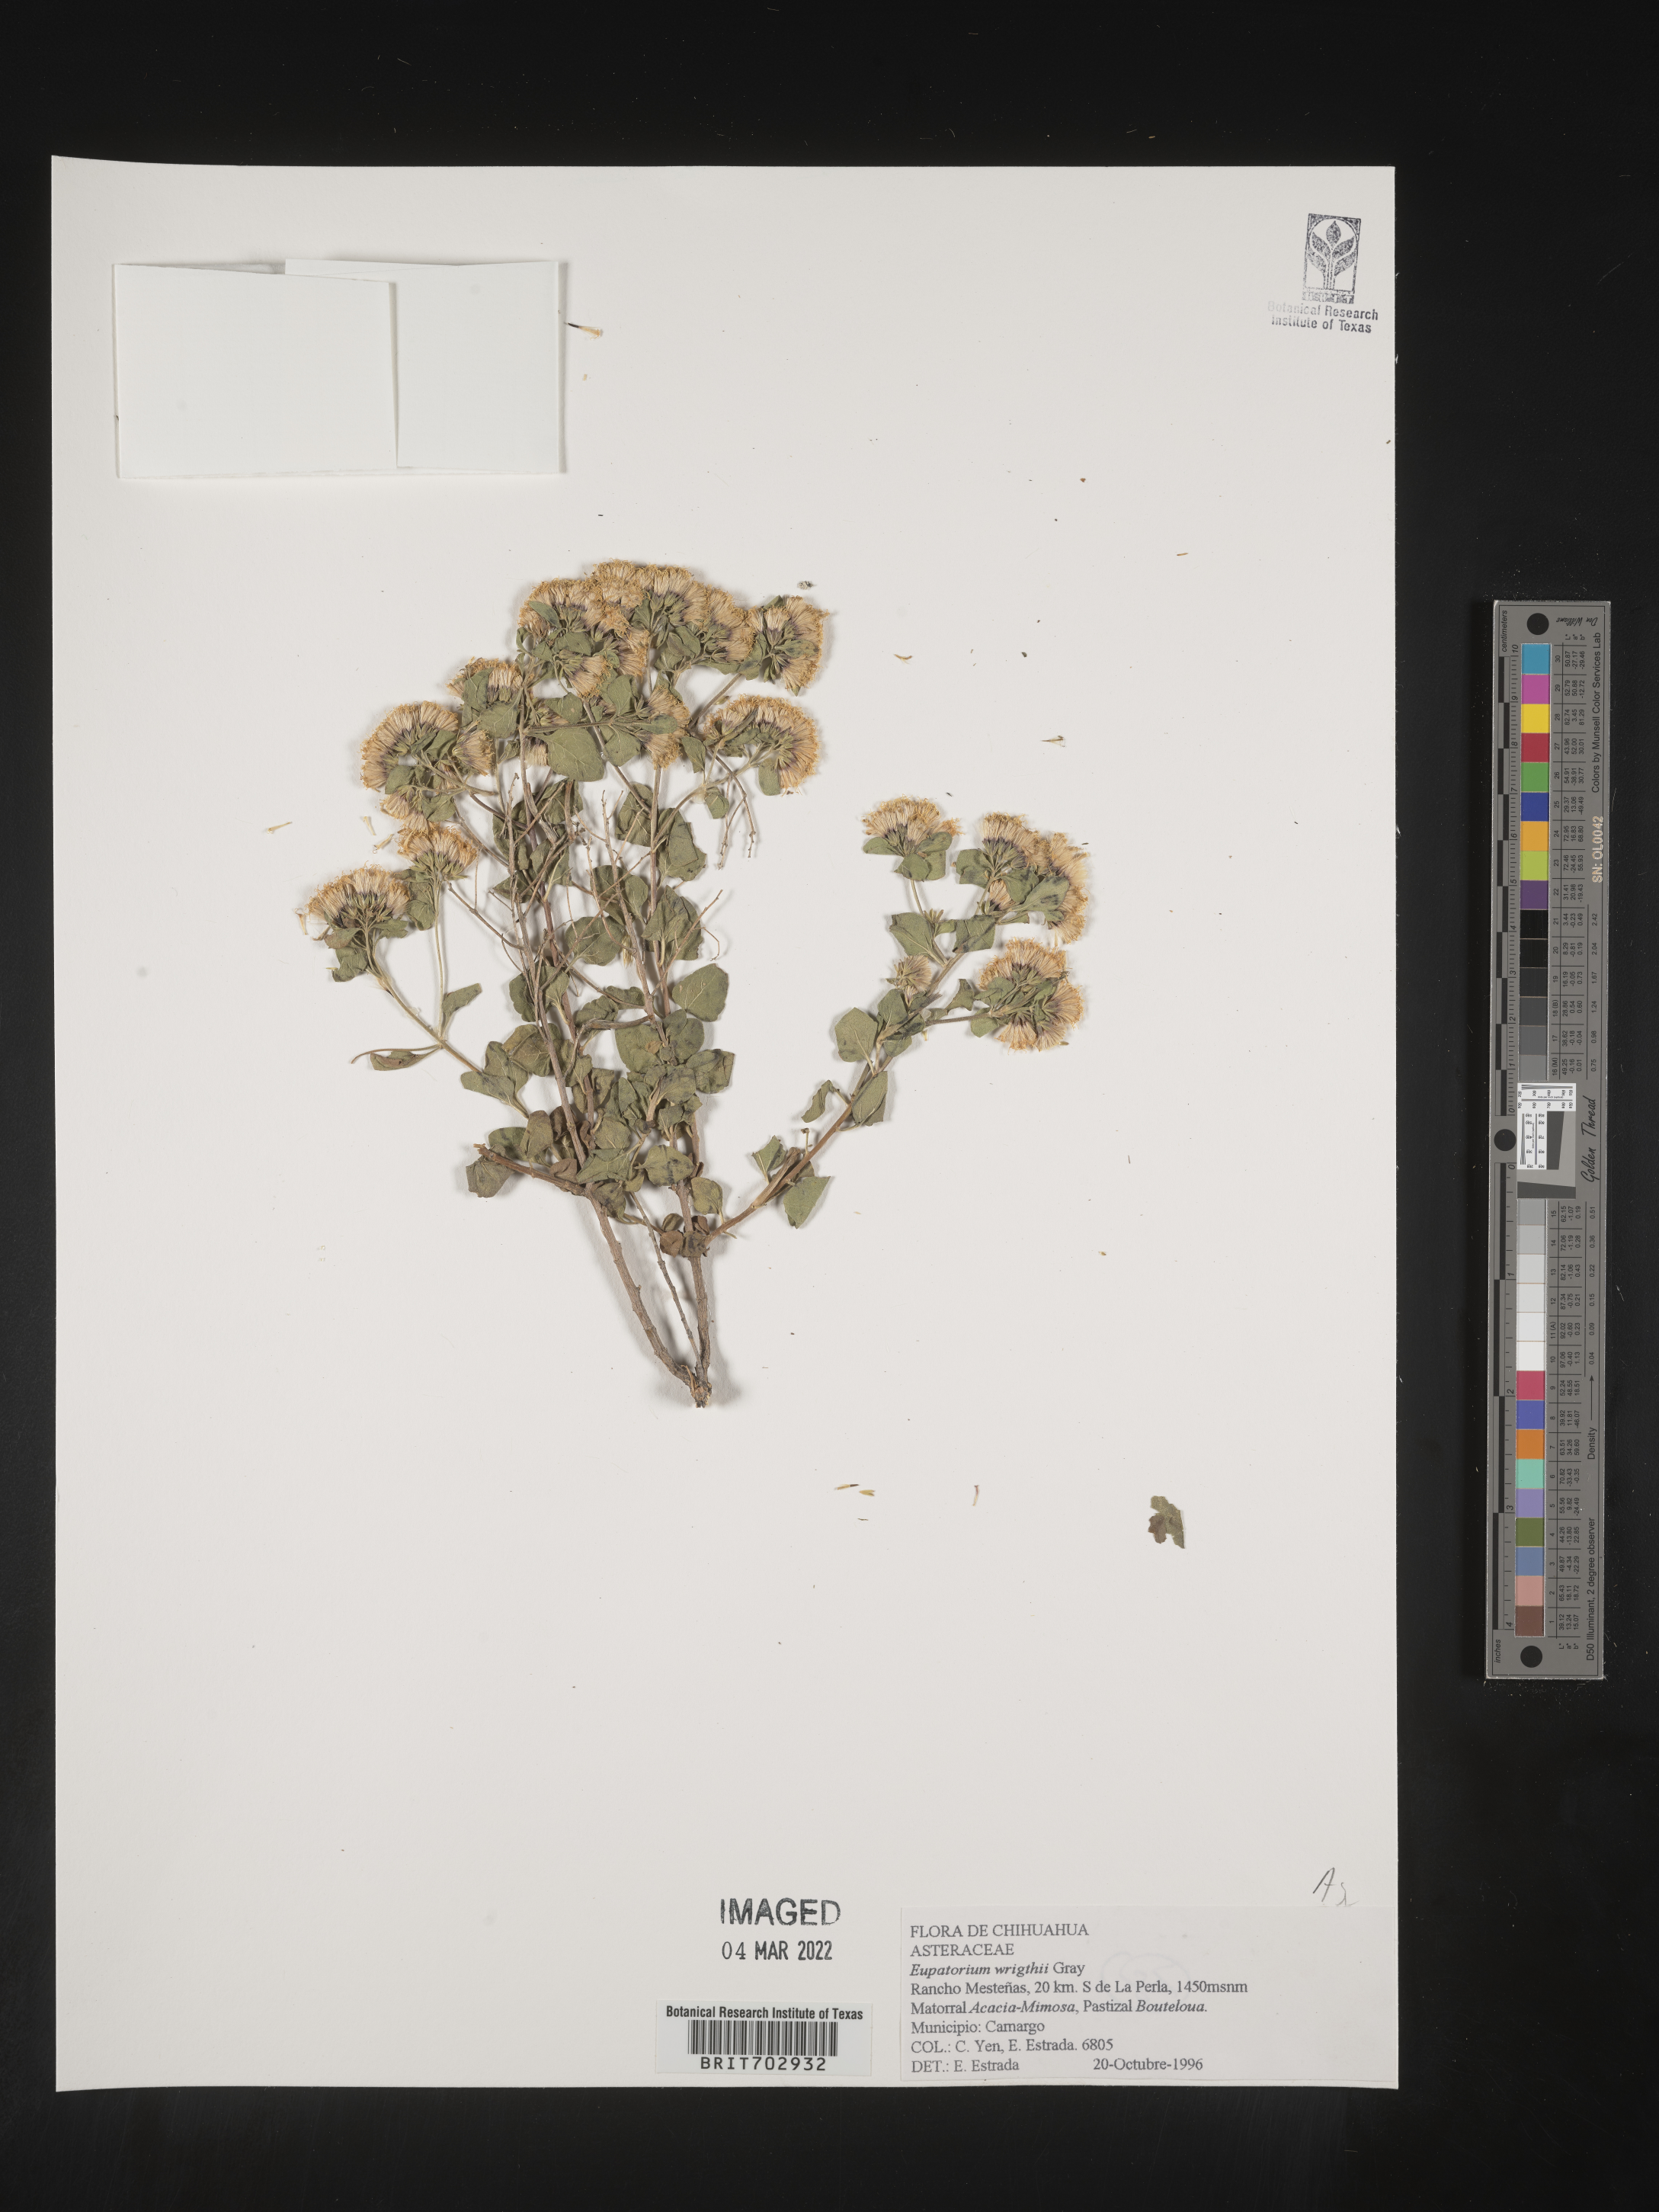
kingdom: Plantae
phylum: Tracheophyta
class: Magnoliopsida
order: Asterales
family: Asteraceae
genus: Eupatorium
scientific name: Eupatorium
